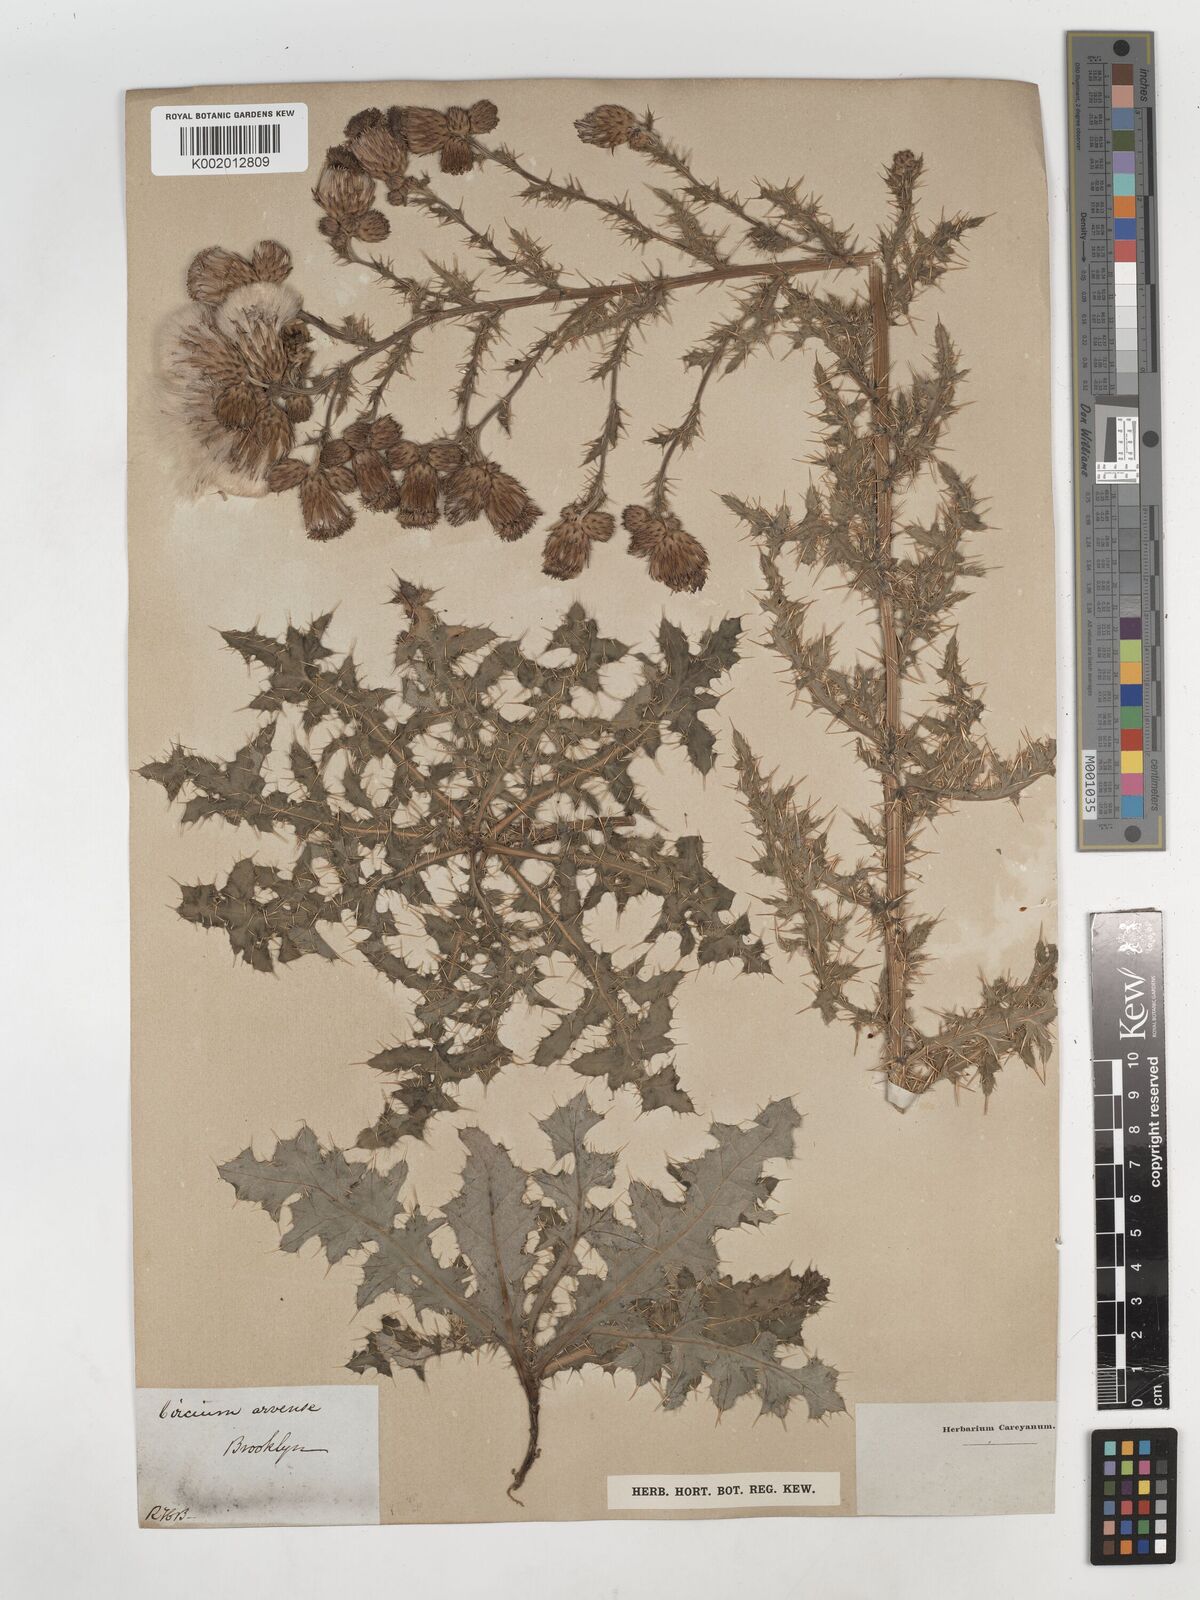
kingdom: Plantae
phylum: Tracheophyta
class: Magnoliopsida
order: Asterales
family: Asteraceae
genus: Cirsium
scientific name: Cirsium arvense
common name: Creeping thistle
